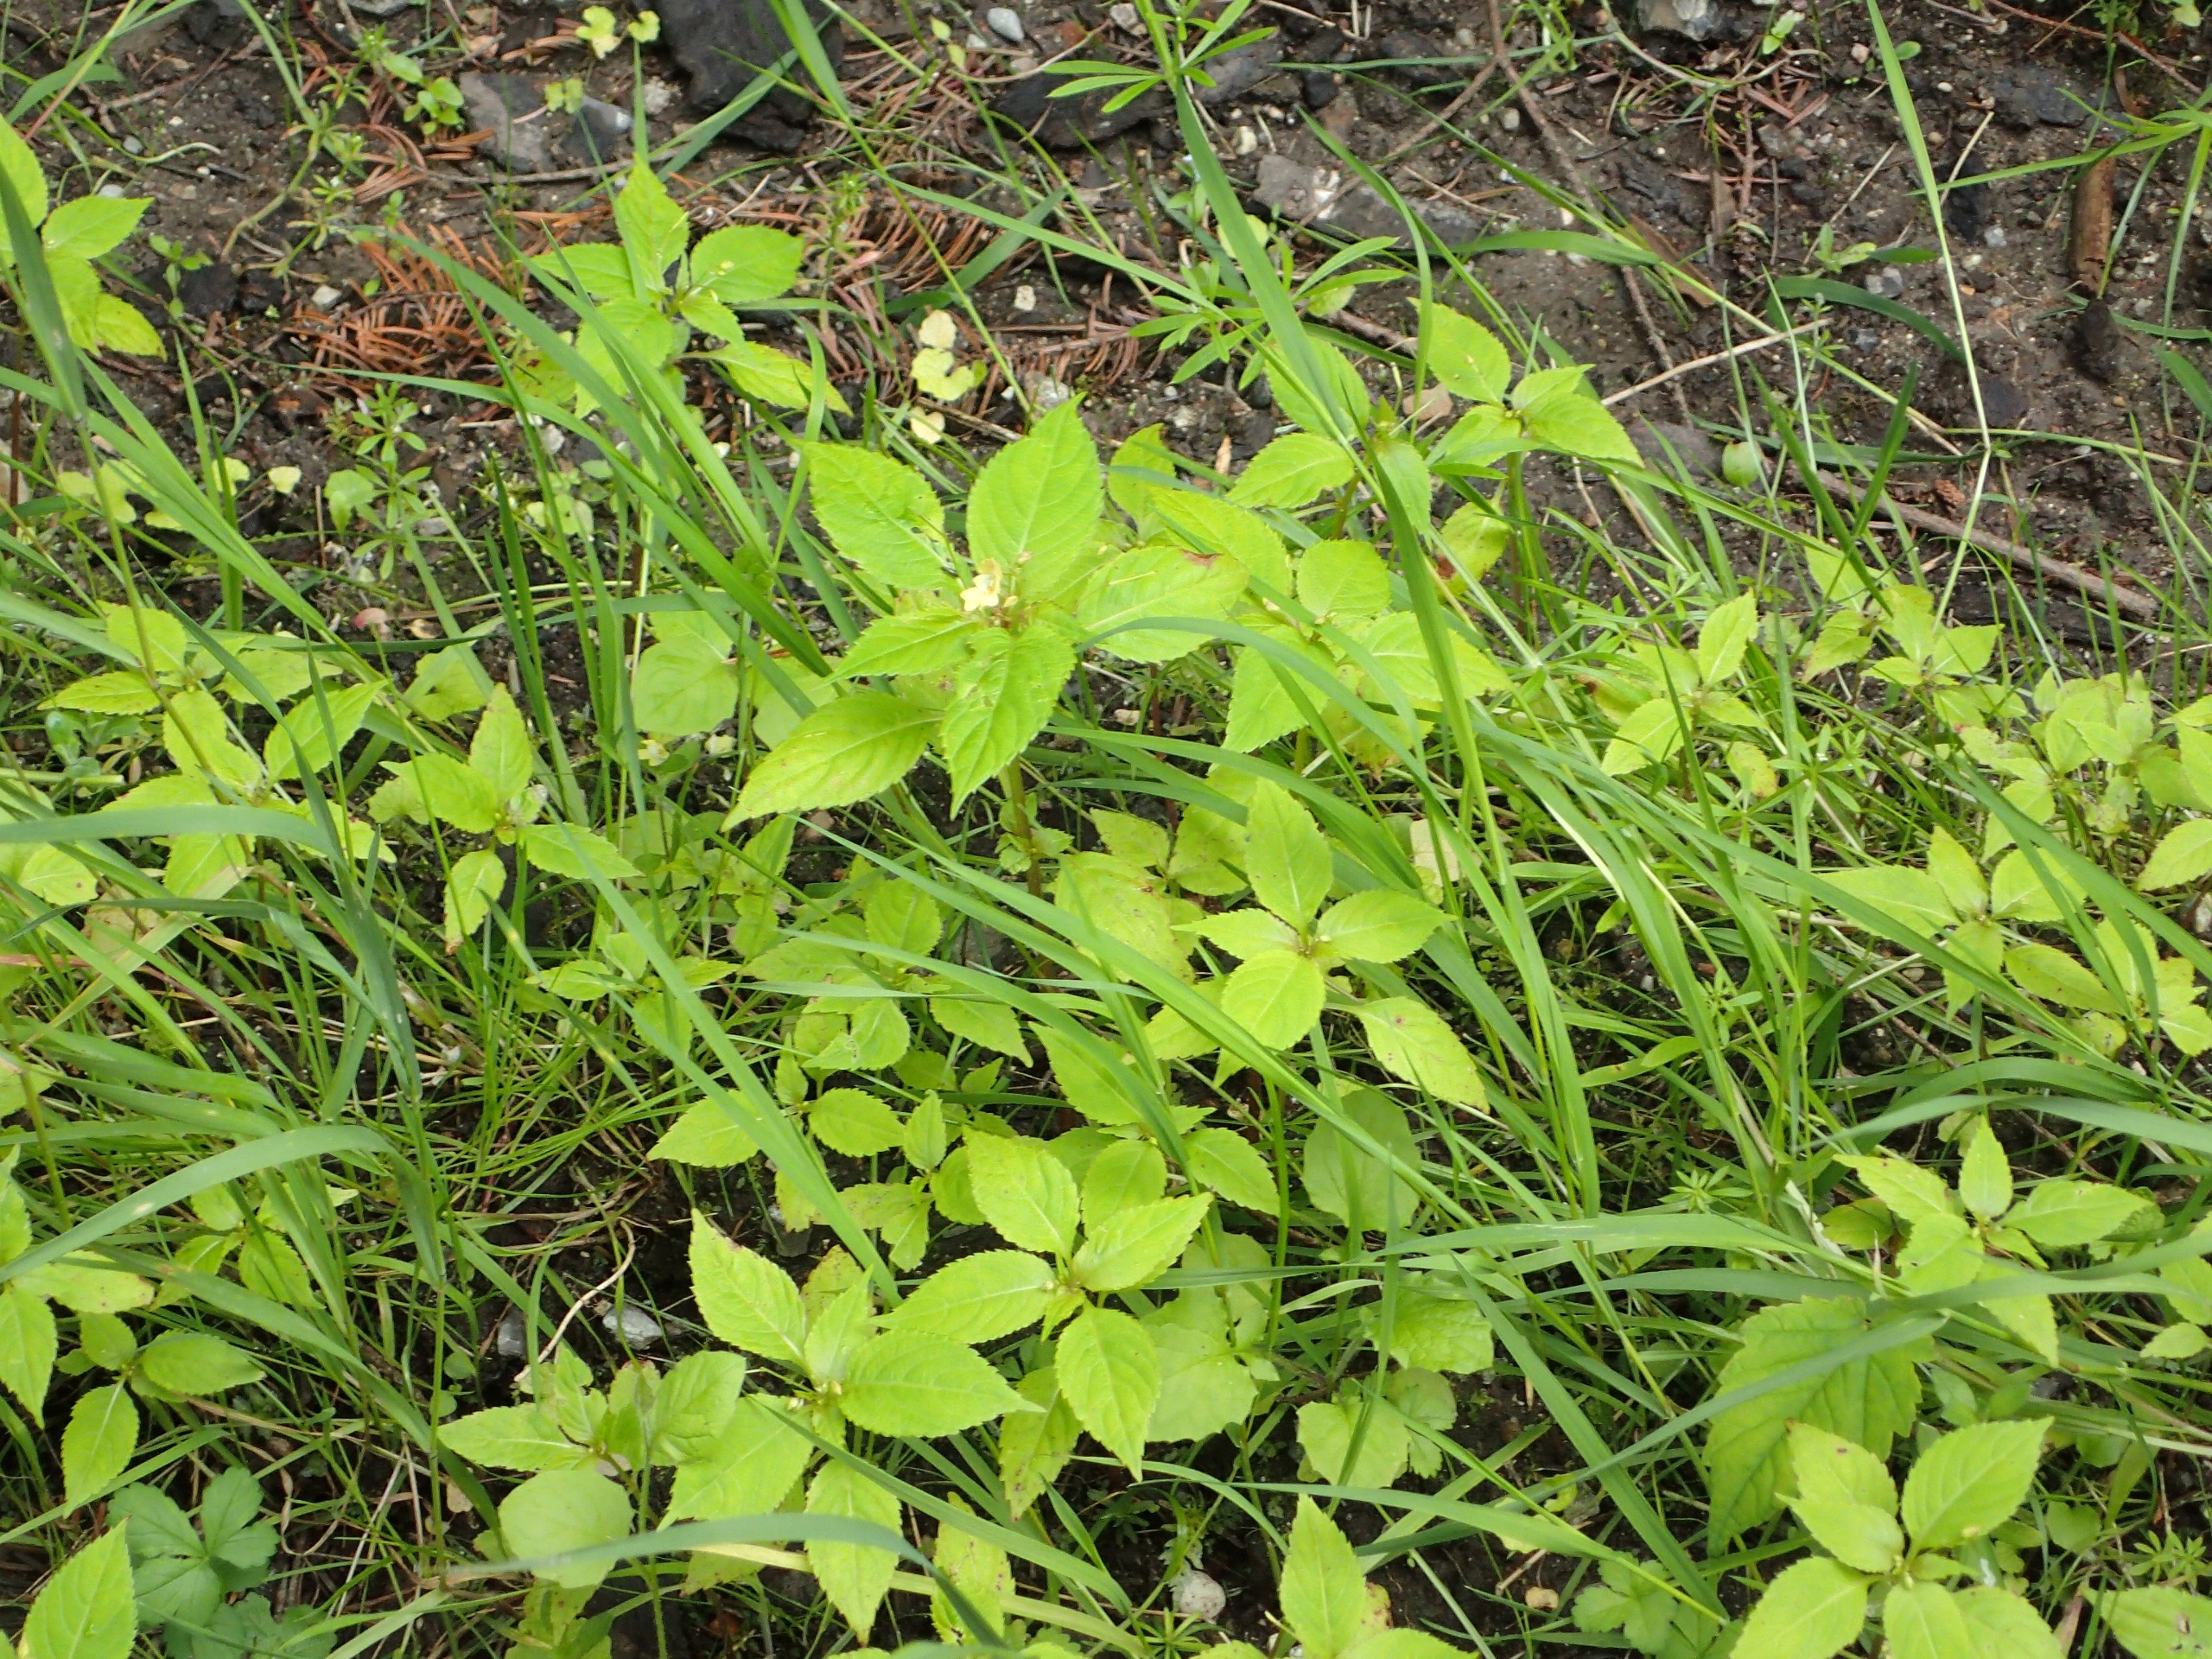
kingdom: Plantae
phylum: Tracheophyta
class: Magnoliopsida
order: Ericales
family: Balsaminaceae
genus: Impatiens
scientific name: Impatiens parviflora
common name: Småblomstret balsamin
